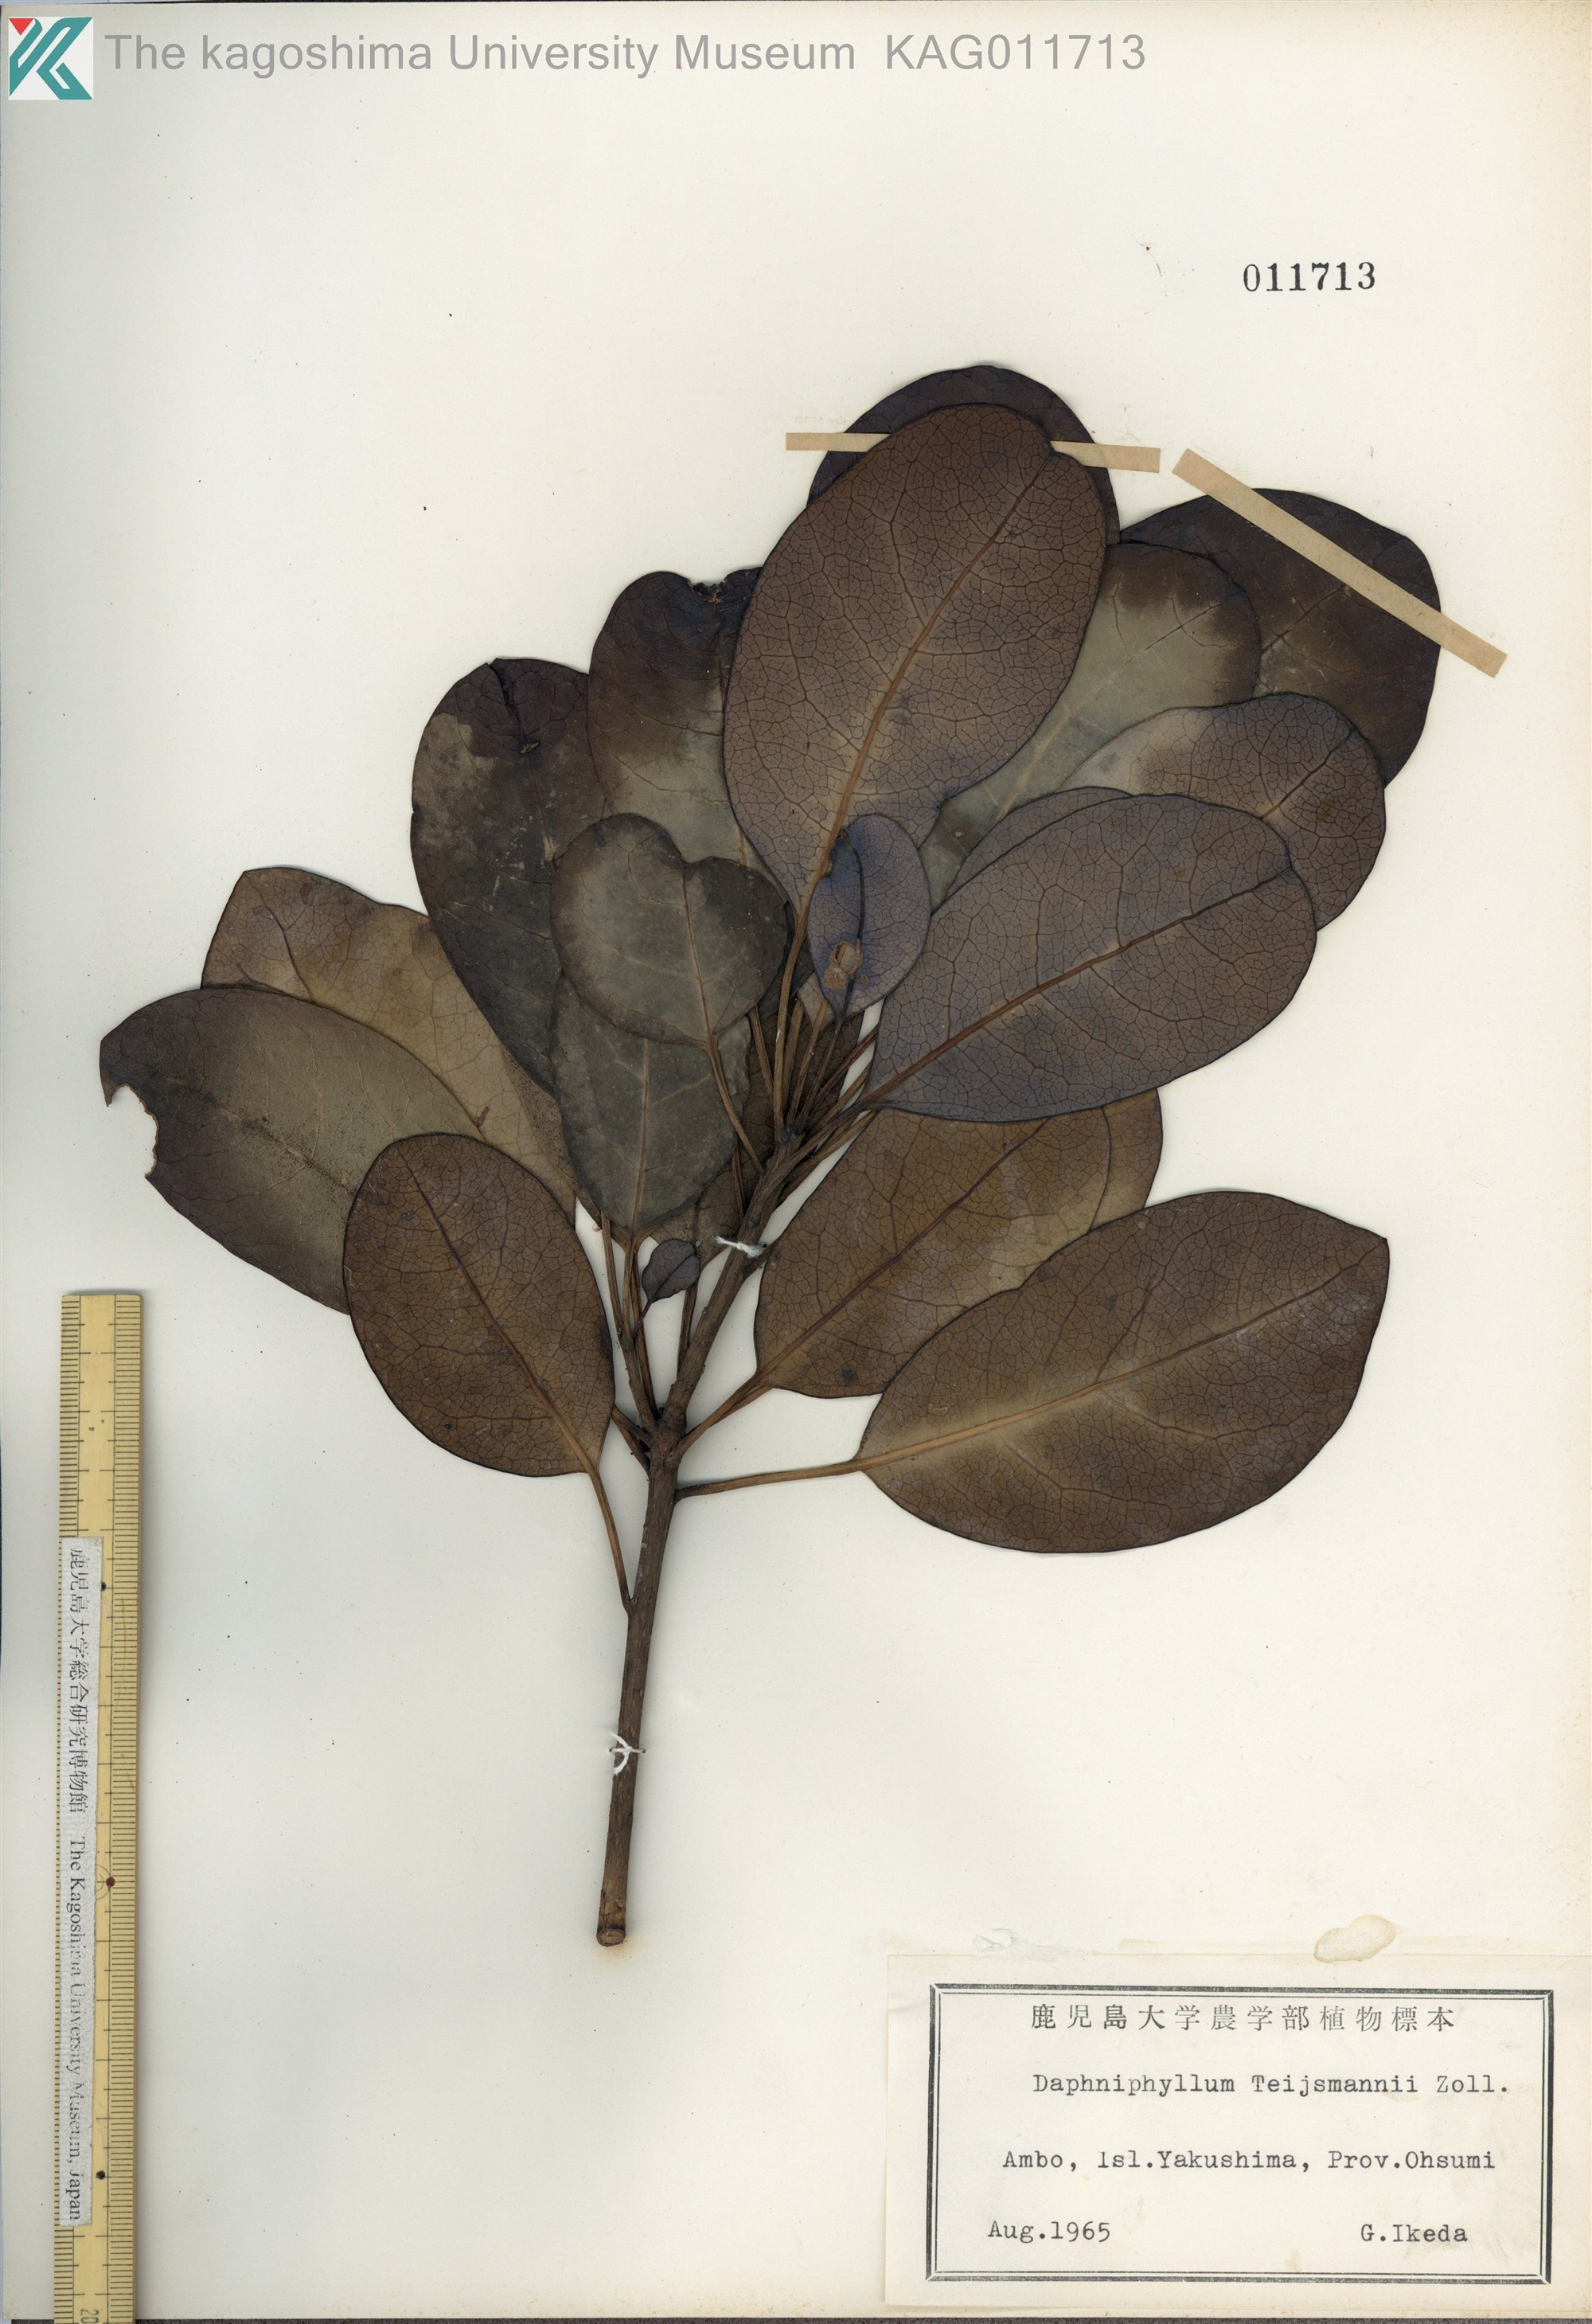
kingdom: Plantae
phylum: Tracheophyta
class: Magnoliopsida
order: Saxifragales
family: Daphniphyllaceae
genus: Daphniphyllum
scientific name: Daphniphyllum teijsmannii
